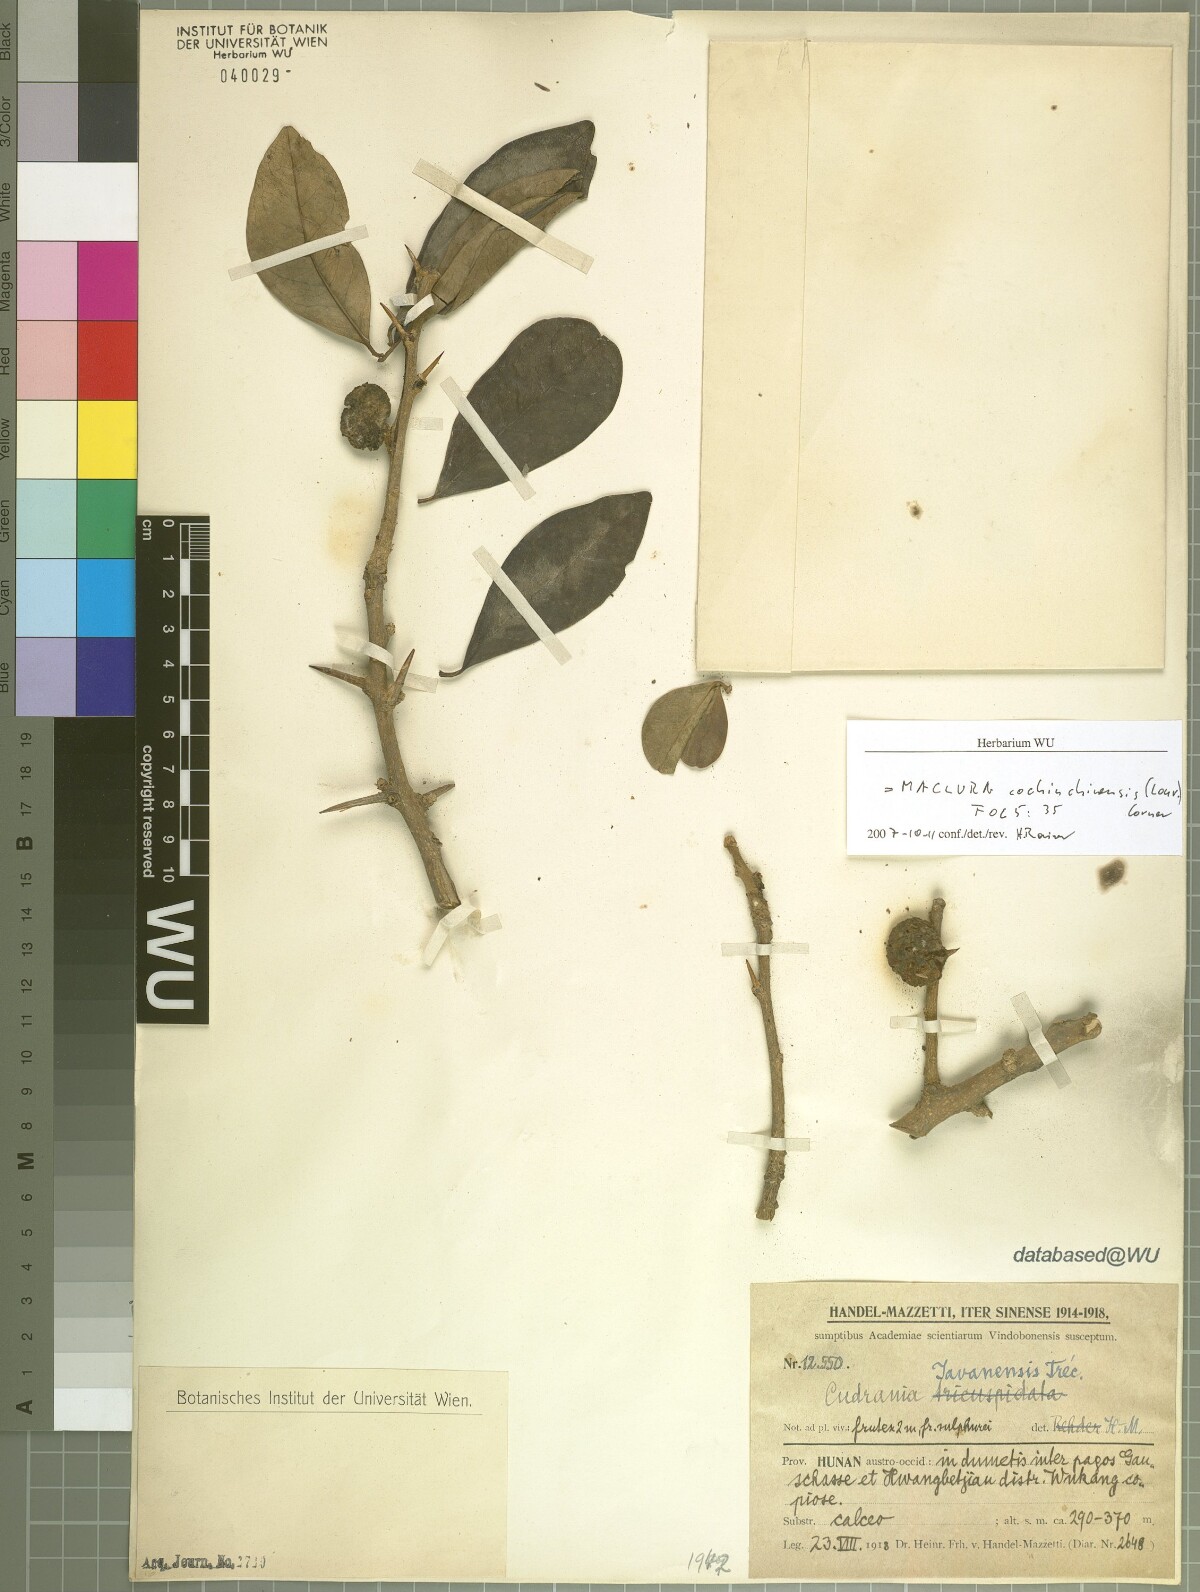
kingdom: Plantae
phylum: Tracheophyta
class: Magnoliopsida
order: Rosales
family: Moraceae
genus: Maclura
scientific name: Maclura cochinchinensis
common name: Cockspurthorn
